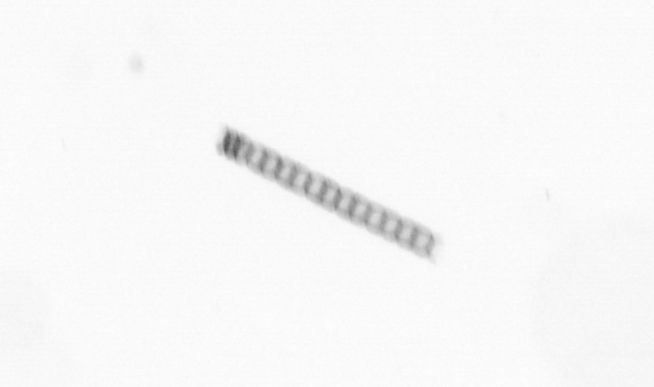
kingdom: Chromista
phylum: Ochrophyta
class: Bacillariophyceae
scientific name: Bacillariophyceae
